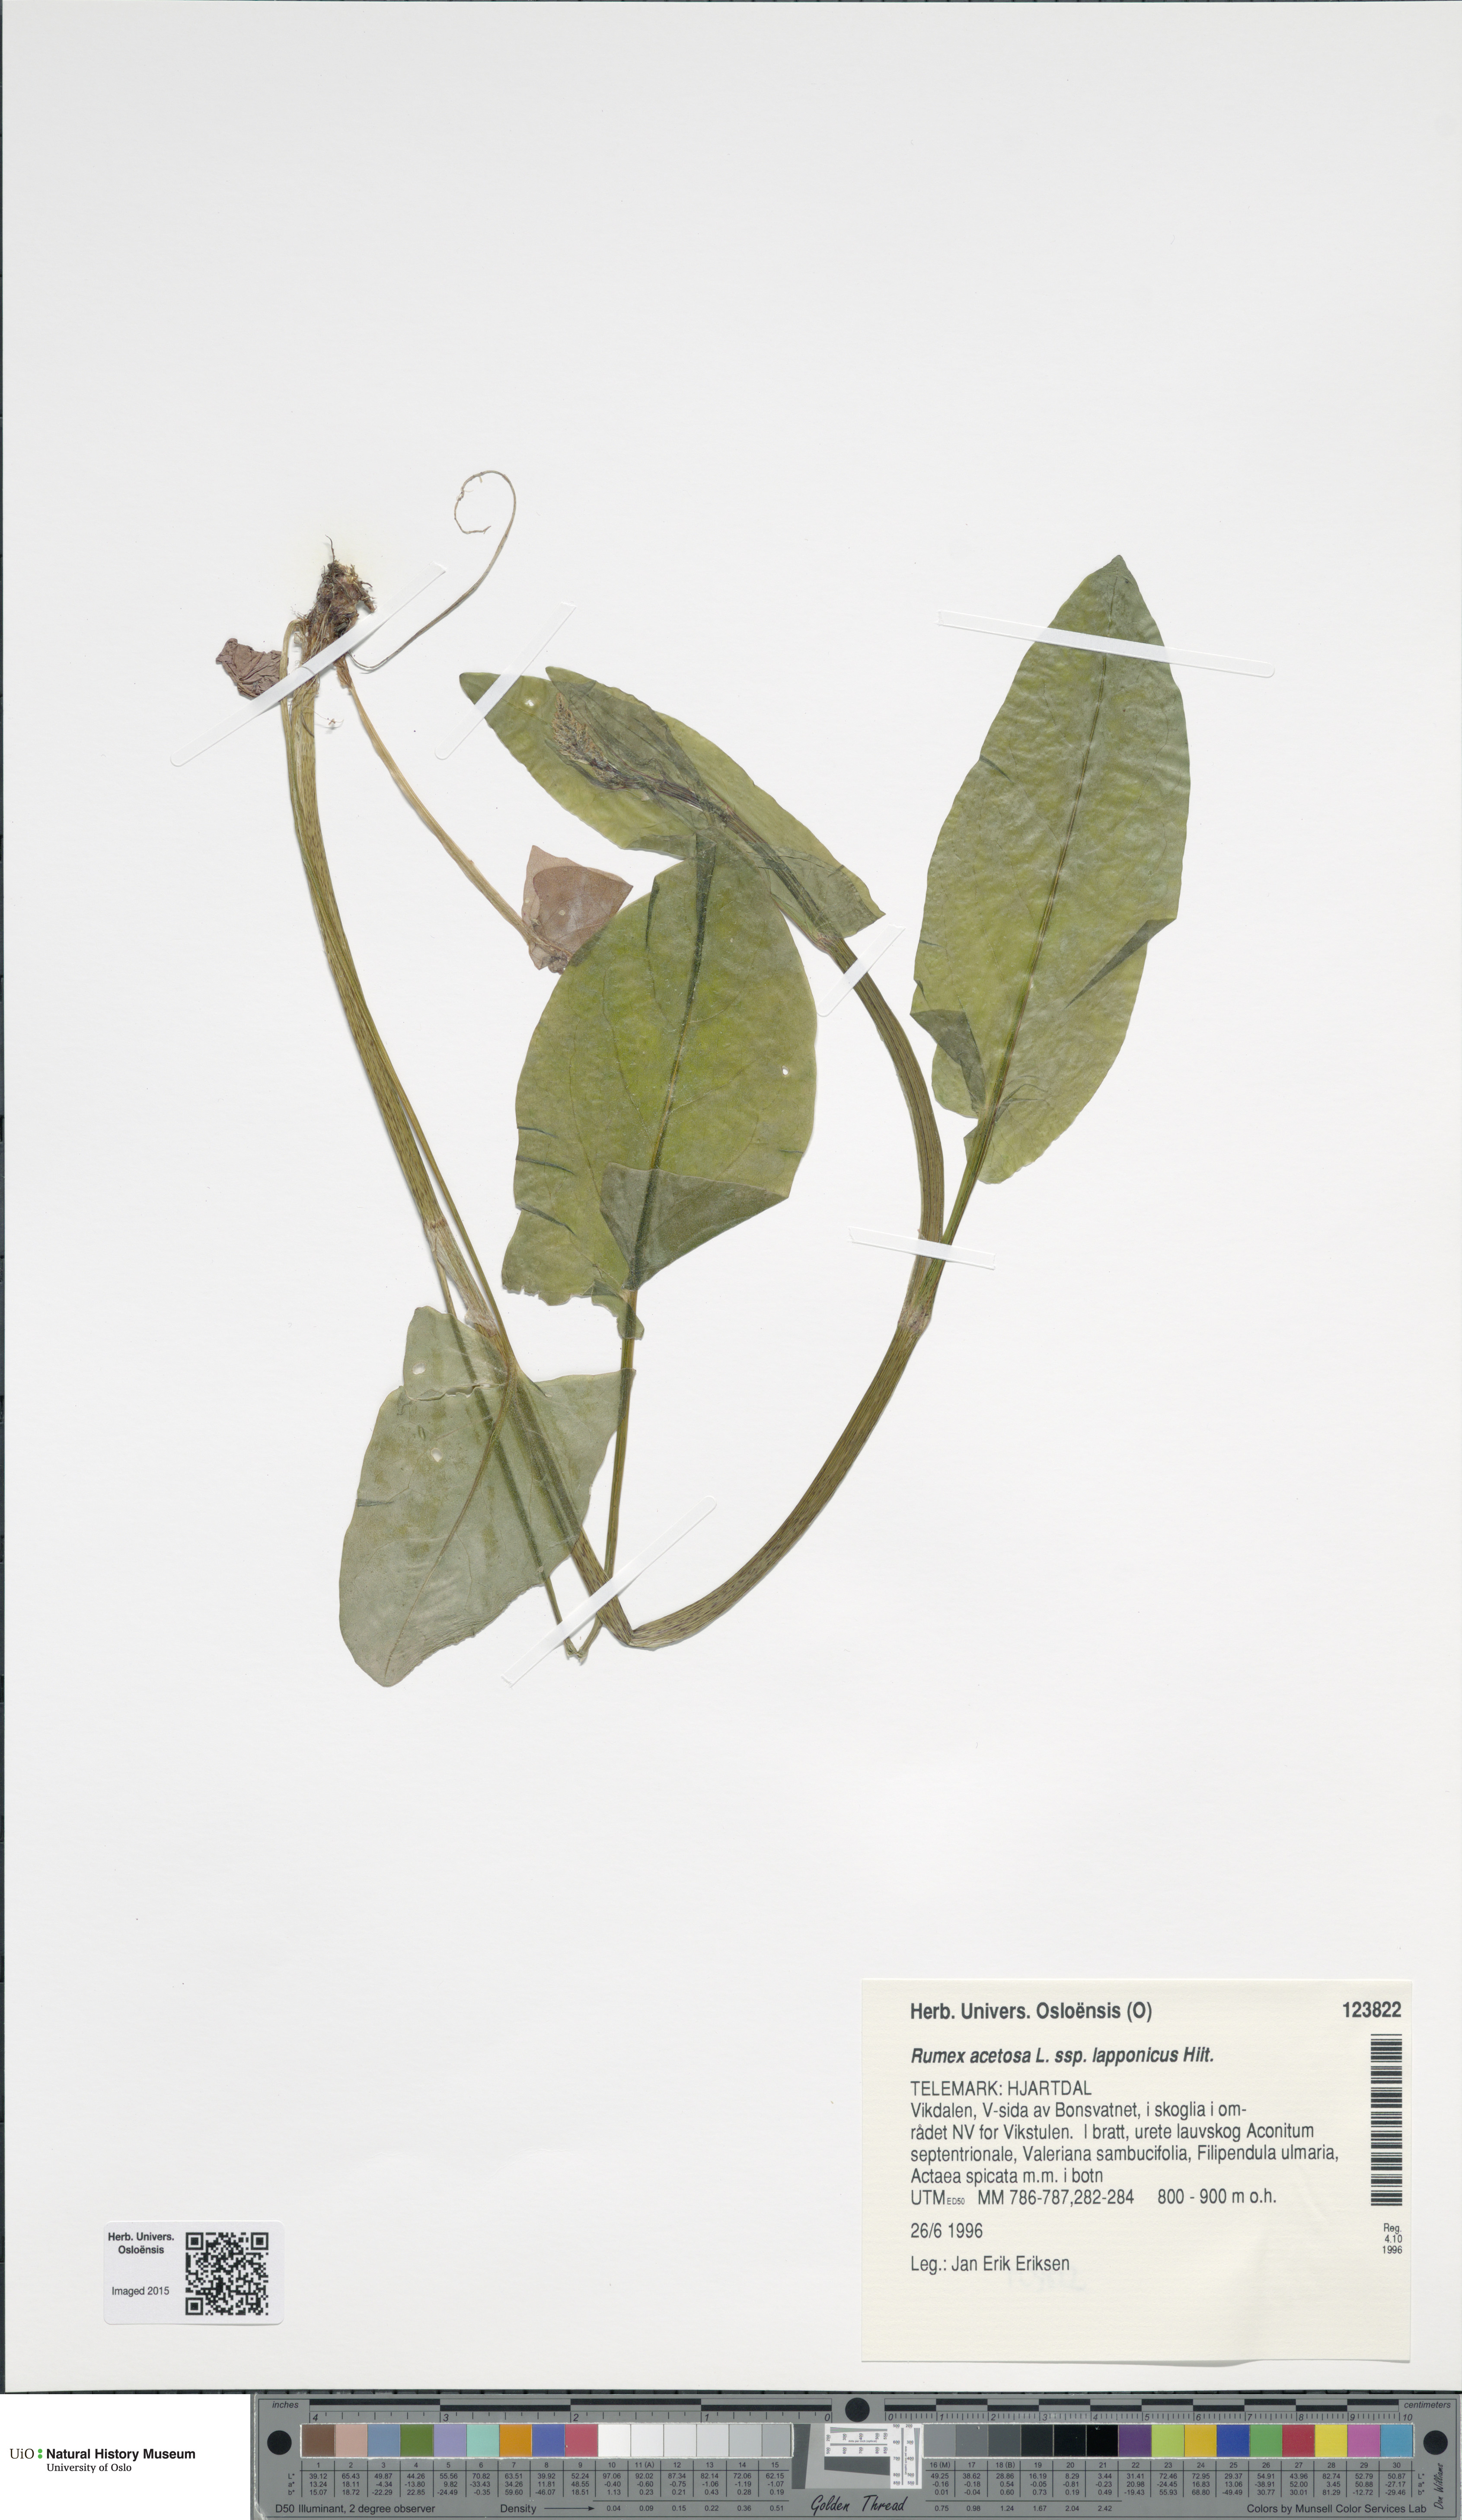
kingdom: Plantae
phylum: Tracheophyta
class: Magnoliopsida
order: Caryophyllales
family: Polygonaceae
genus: Rumex
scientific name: Rumex lapponicus
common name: Lapland mountain sorrel
